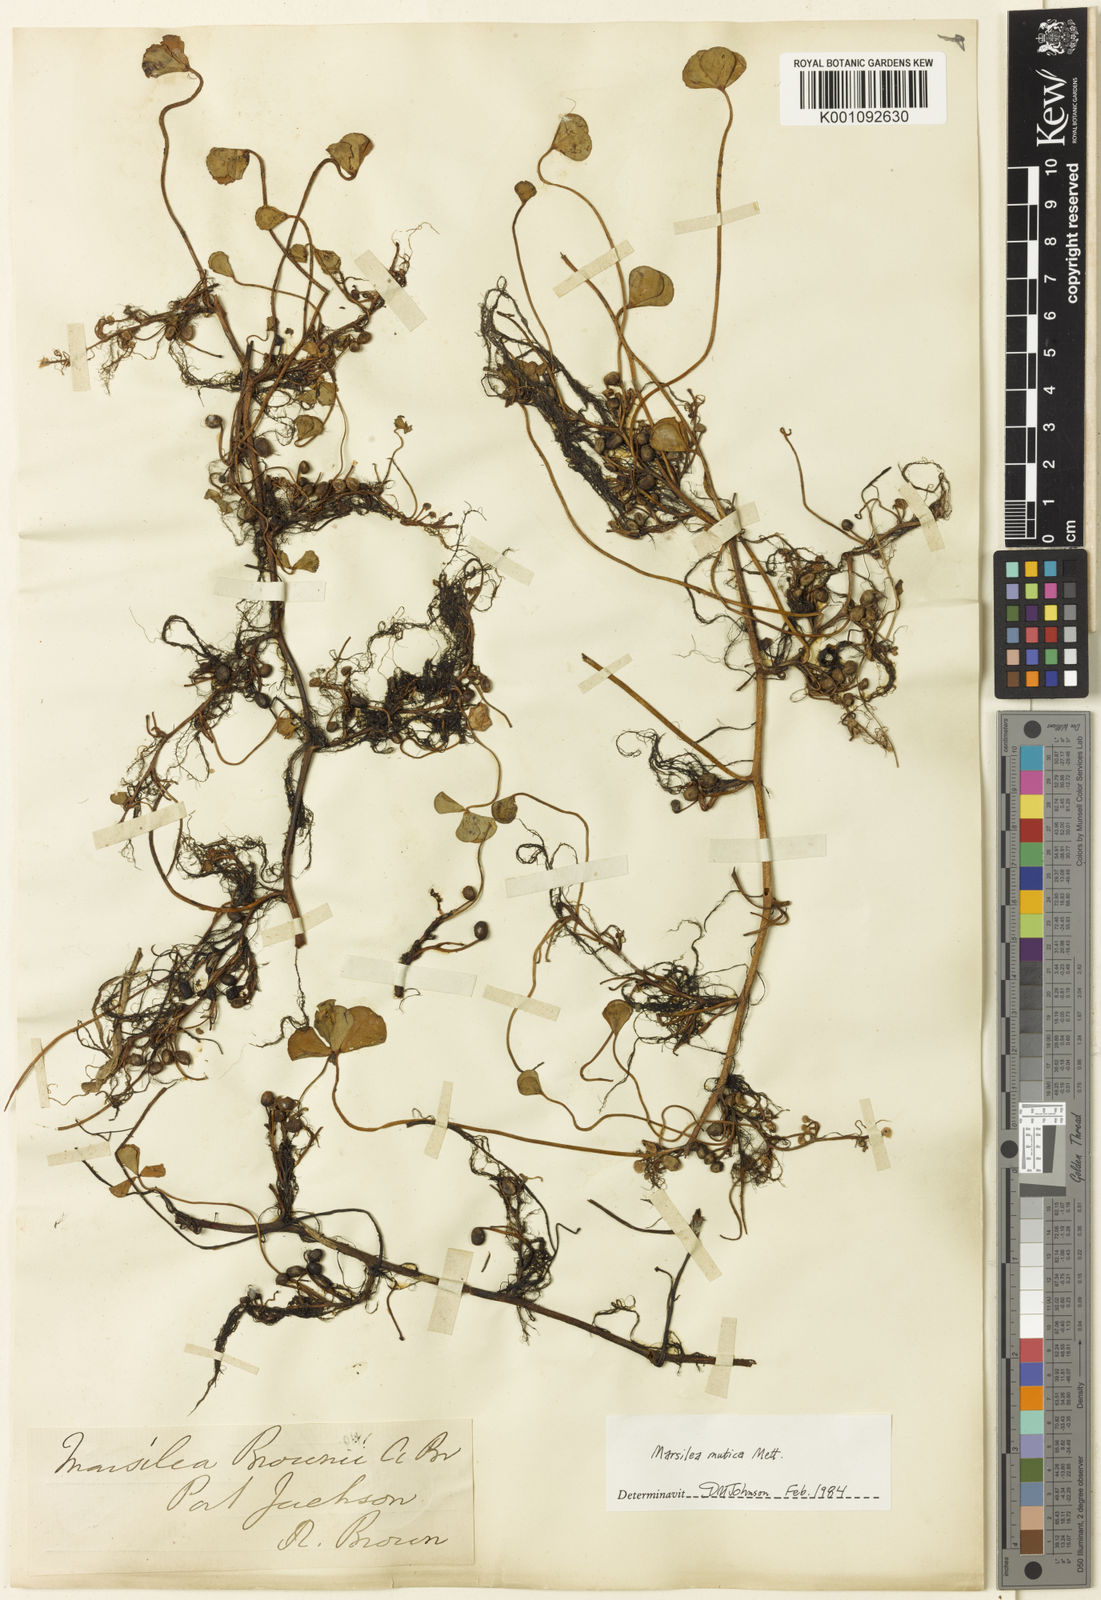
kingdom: Plantae
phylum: Tracheophyta
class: Polypodiopsida
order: Salviniales
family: Marsileaceae
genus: Marsilea
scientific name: Marsilea mutica
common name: Australian water-clover
